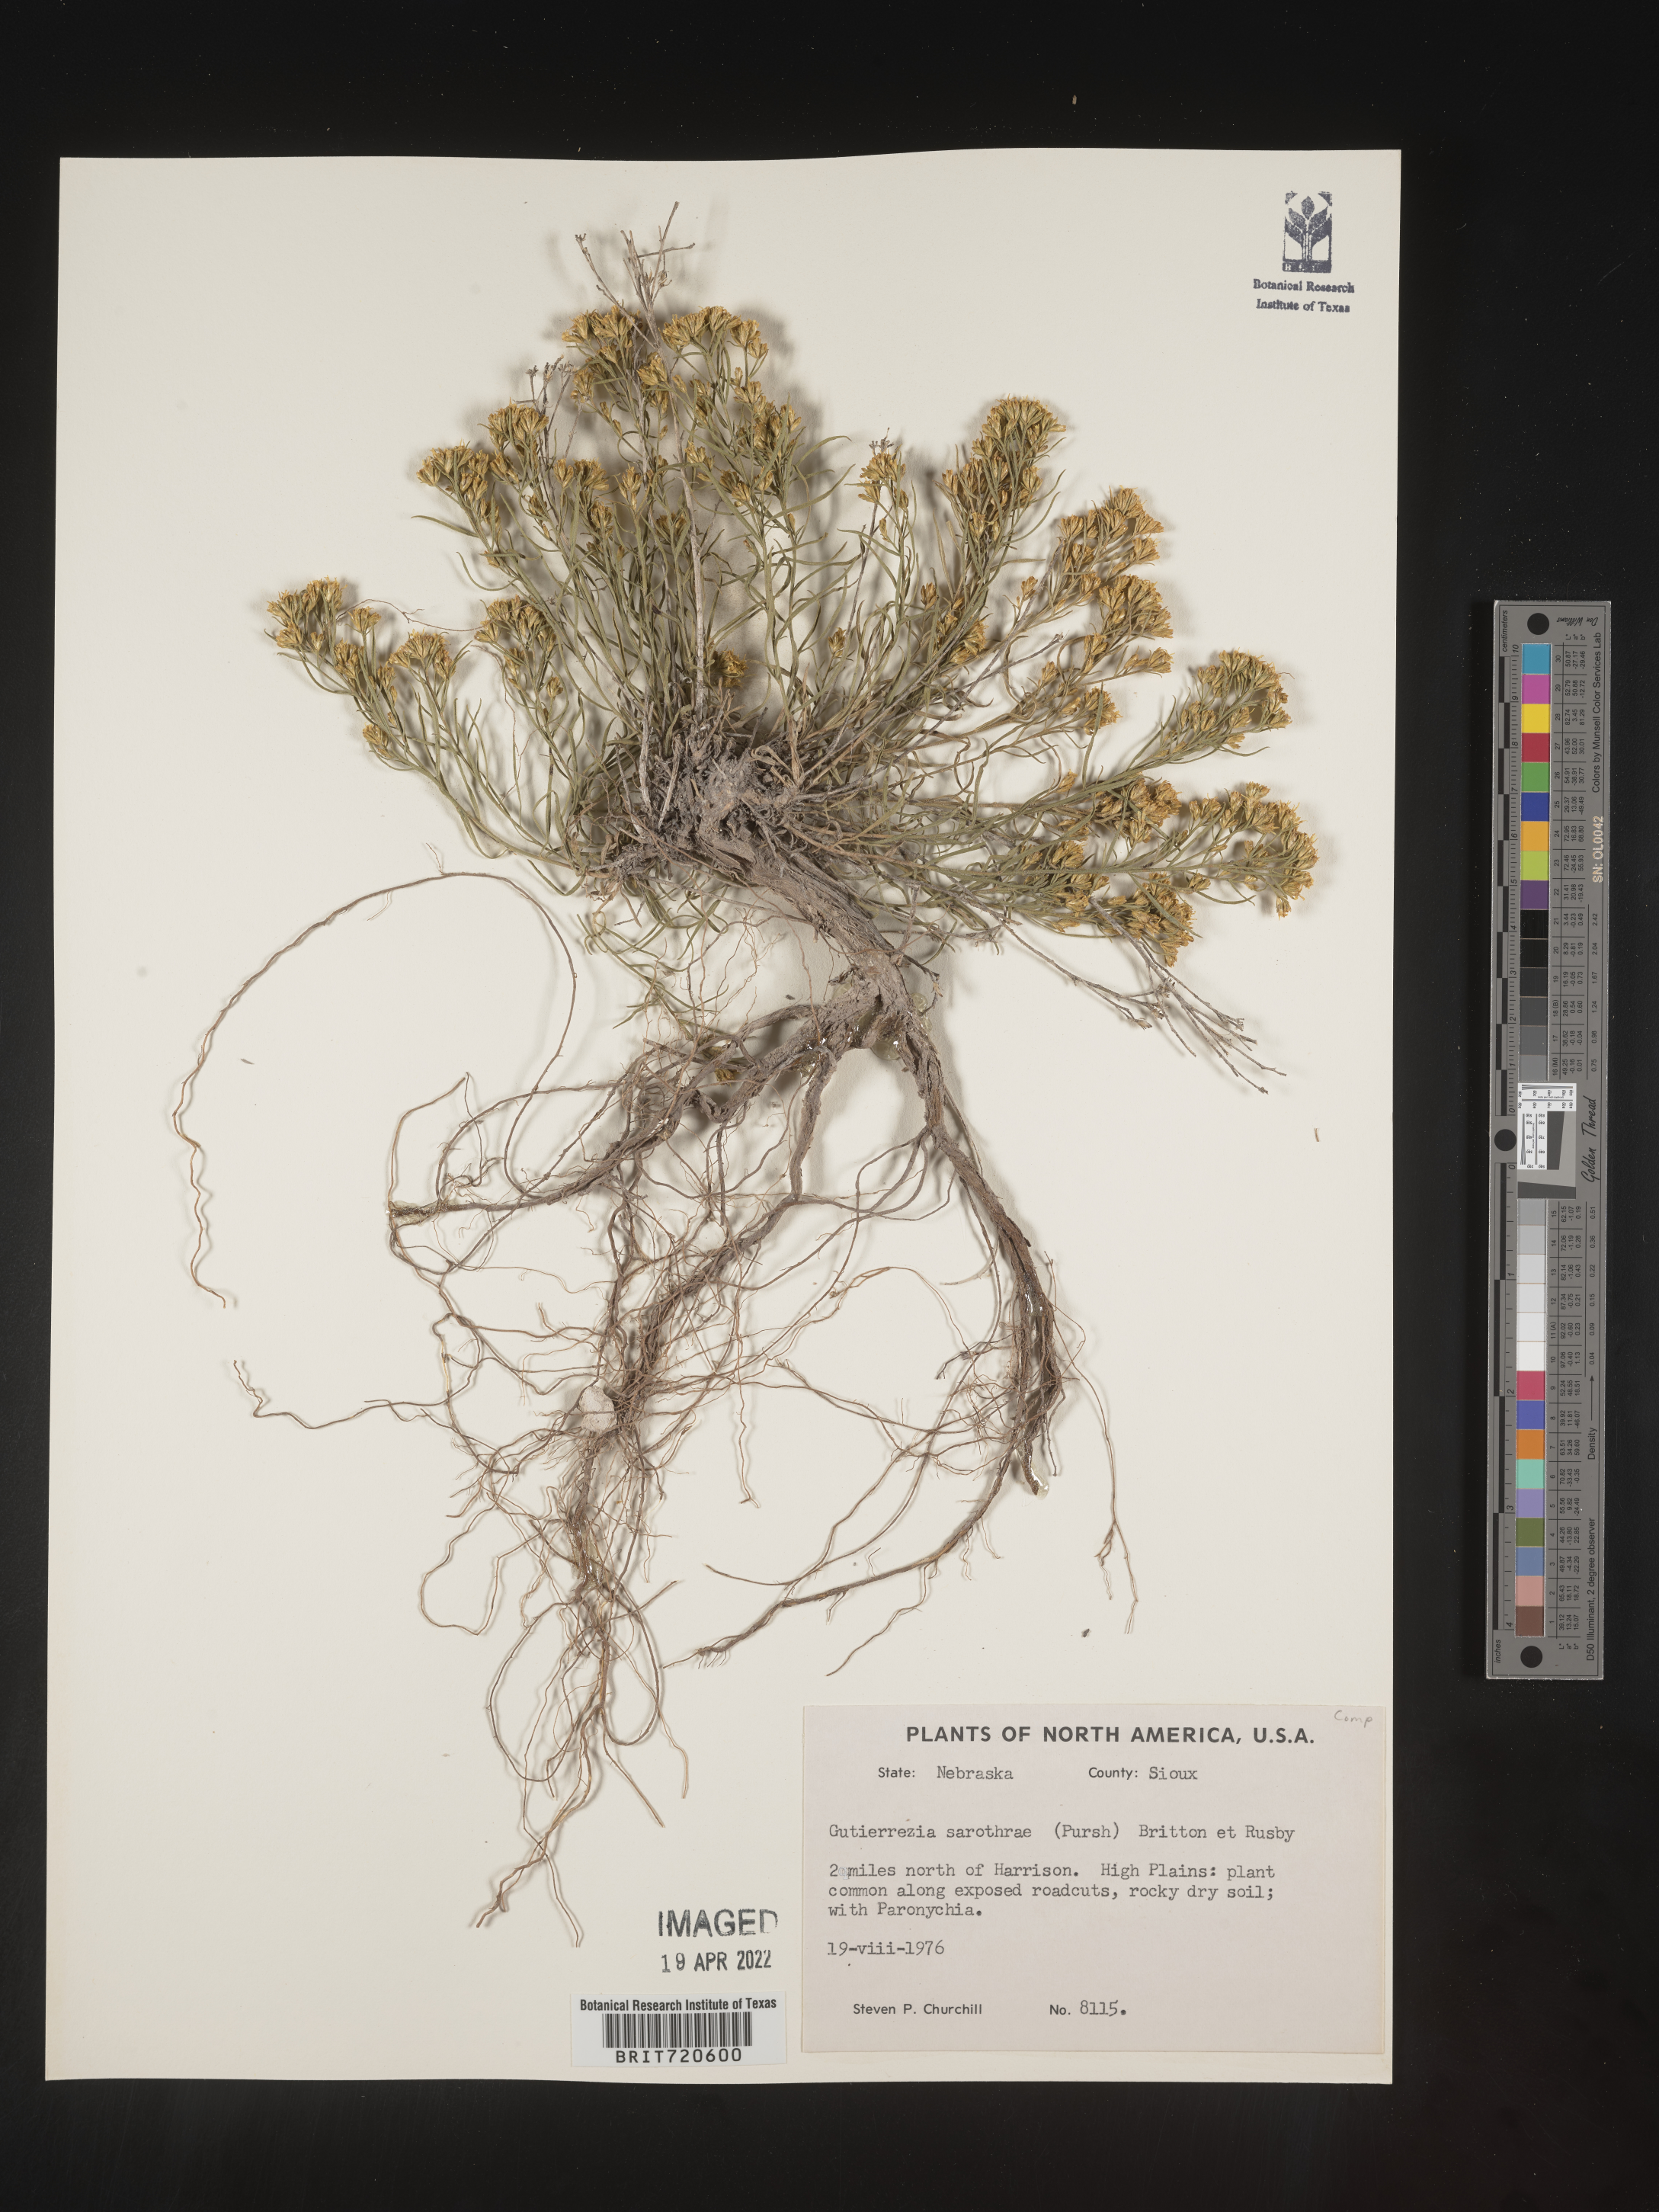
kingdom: Plantae
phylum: Tracheophyta
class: Magnoliopsida
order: Asterales
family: Asteraceae
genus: Gutierrezia
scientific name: Gutierrezia sarothrae
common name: Broom snakeweed
